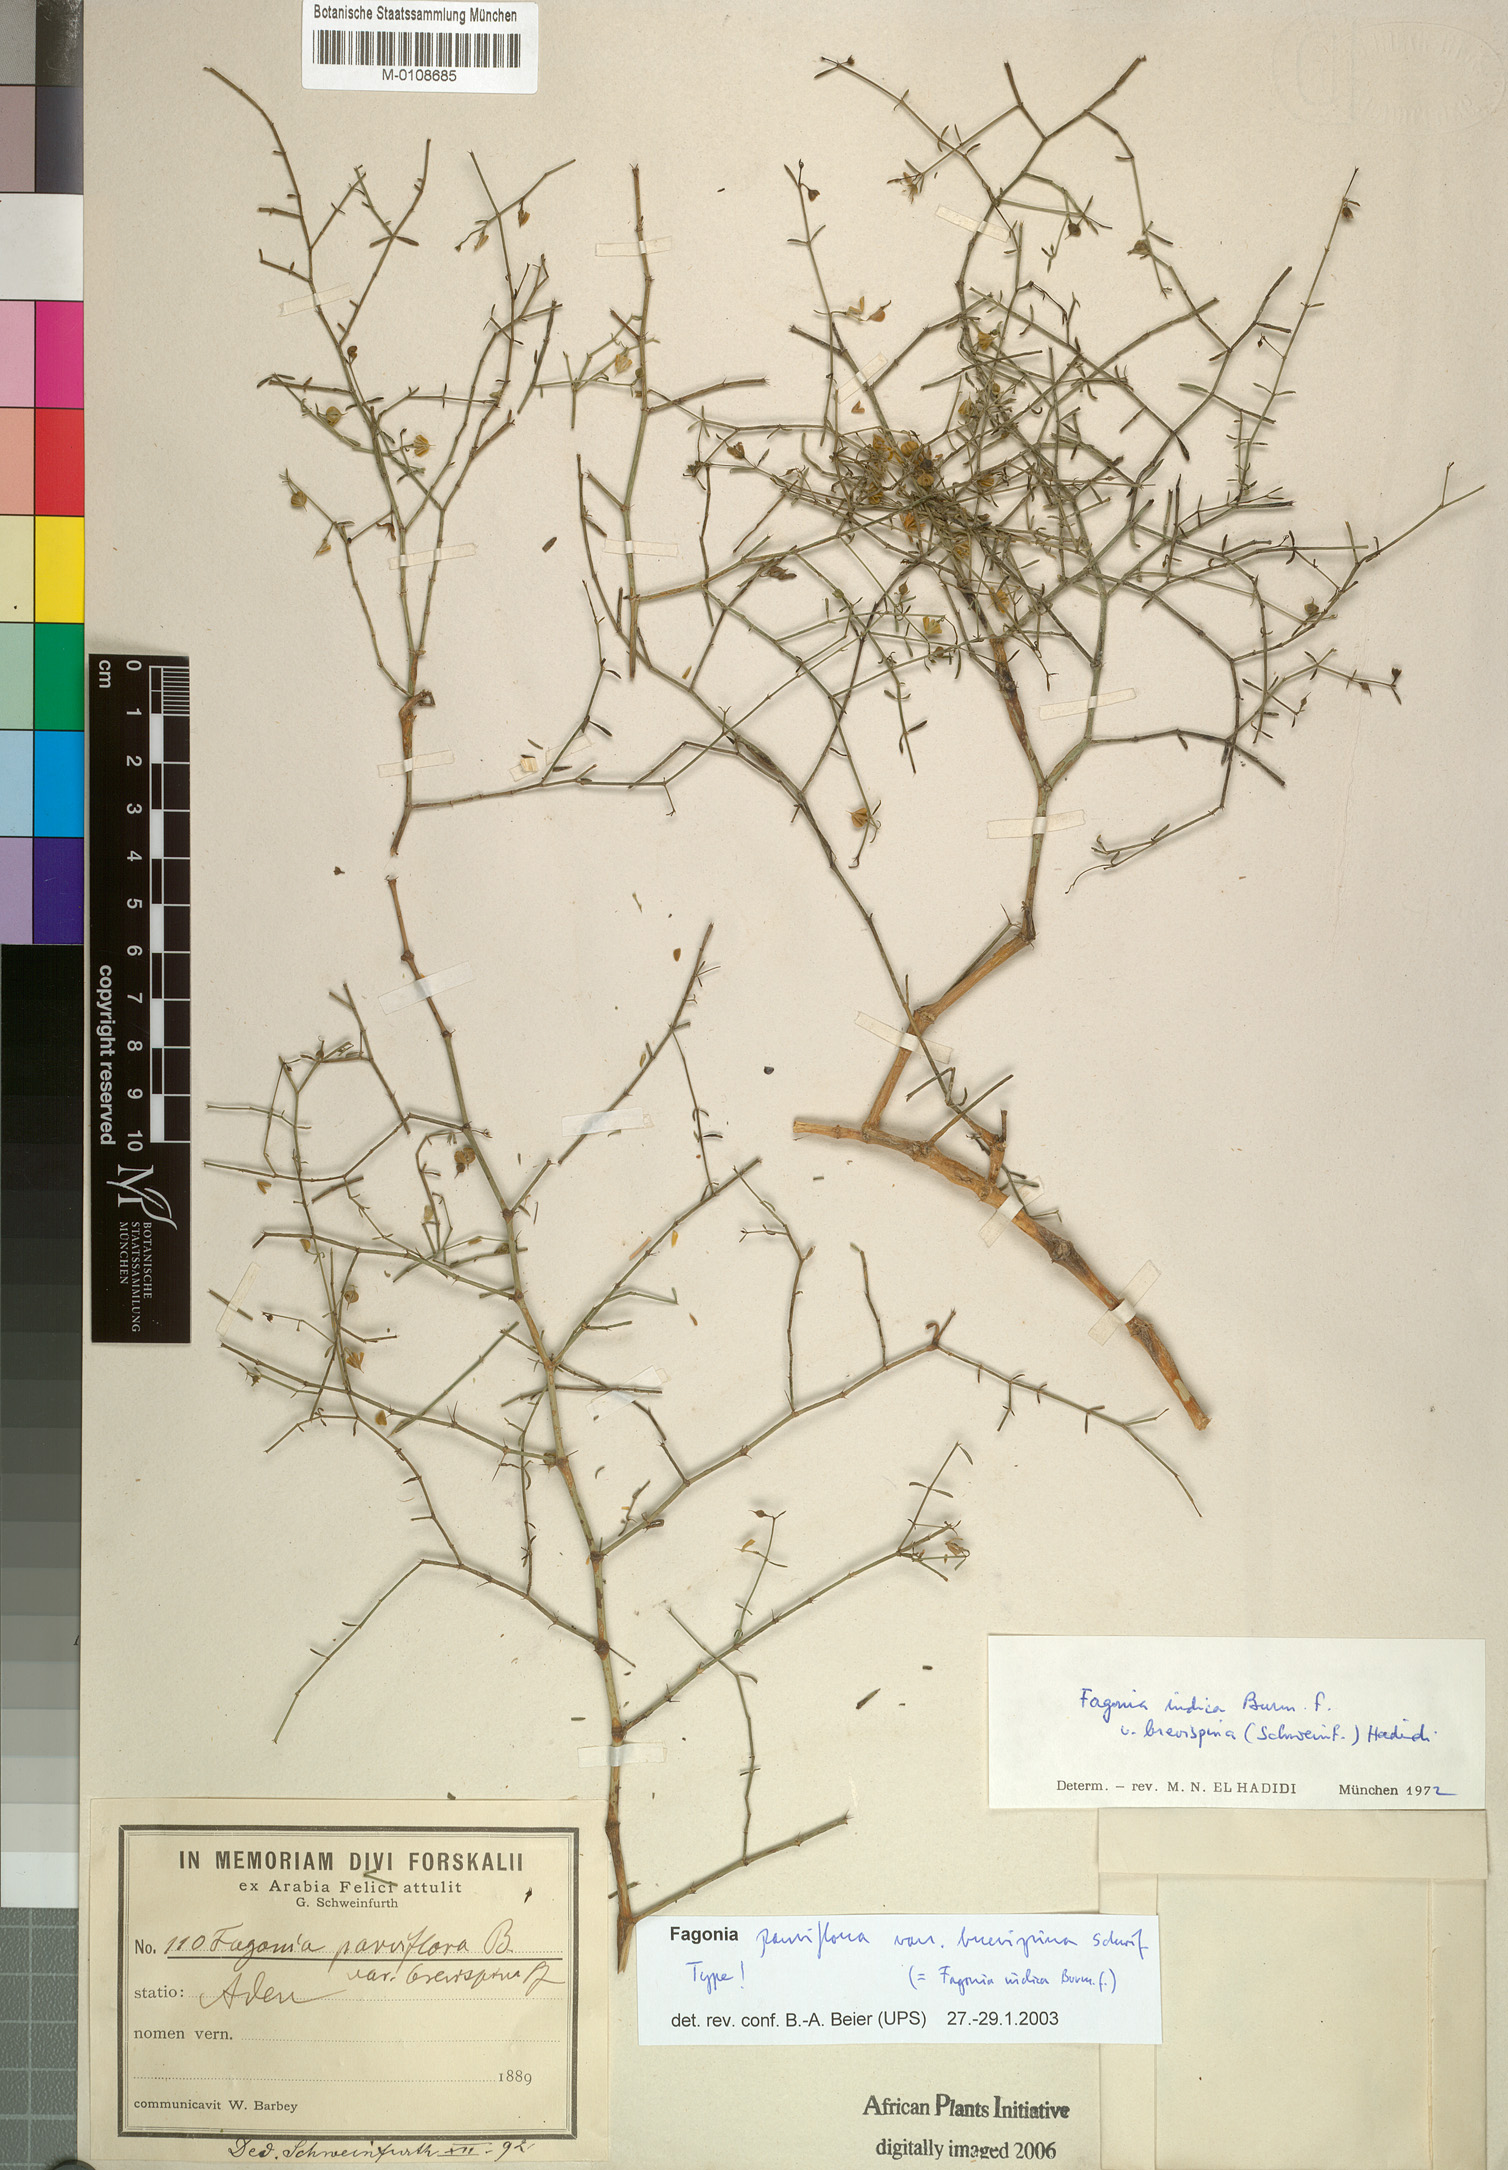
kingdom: Plantae
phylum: Tracheophyta
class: Magnoliopsida
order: Zygophyllales
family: Zygophyllaceae
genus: Fagonia
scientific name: Fagonia indica
